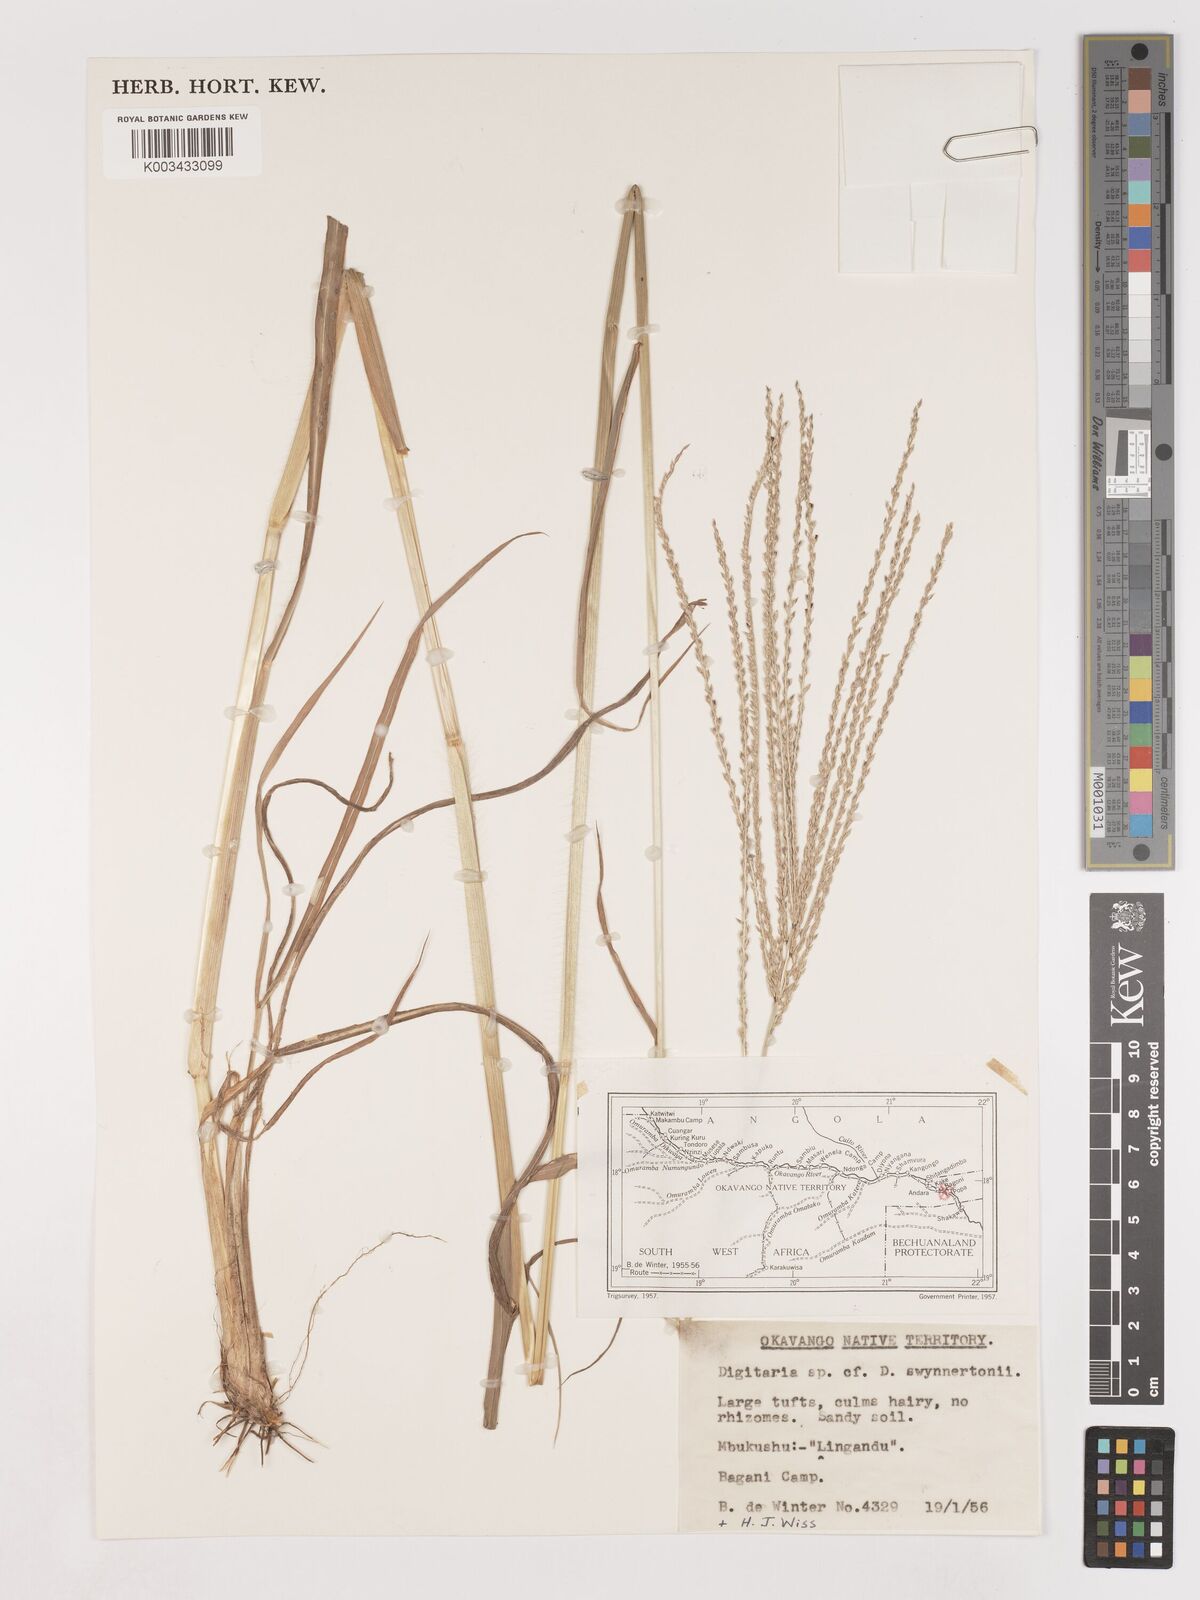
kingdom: Plantae
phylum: Tracheophyta
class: Liliopsida
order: Poales
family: Poaceae
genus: Digitaria
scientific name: Digitaria milanjiana
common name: Madagascar crabgrass
